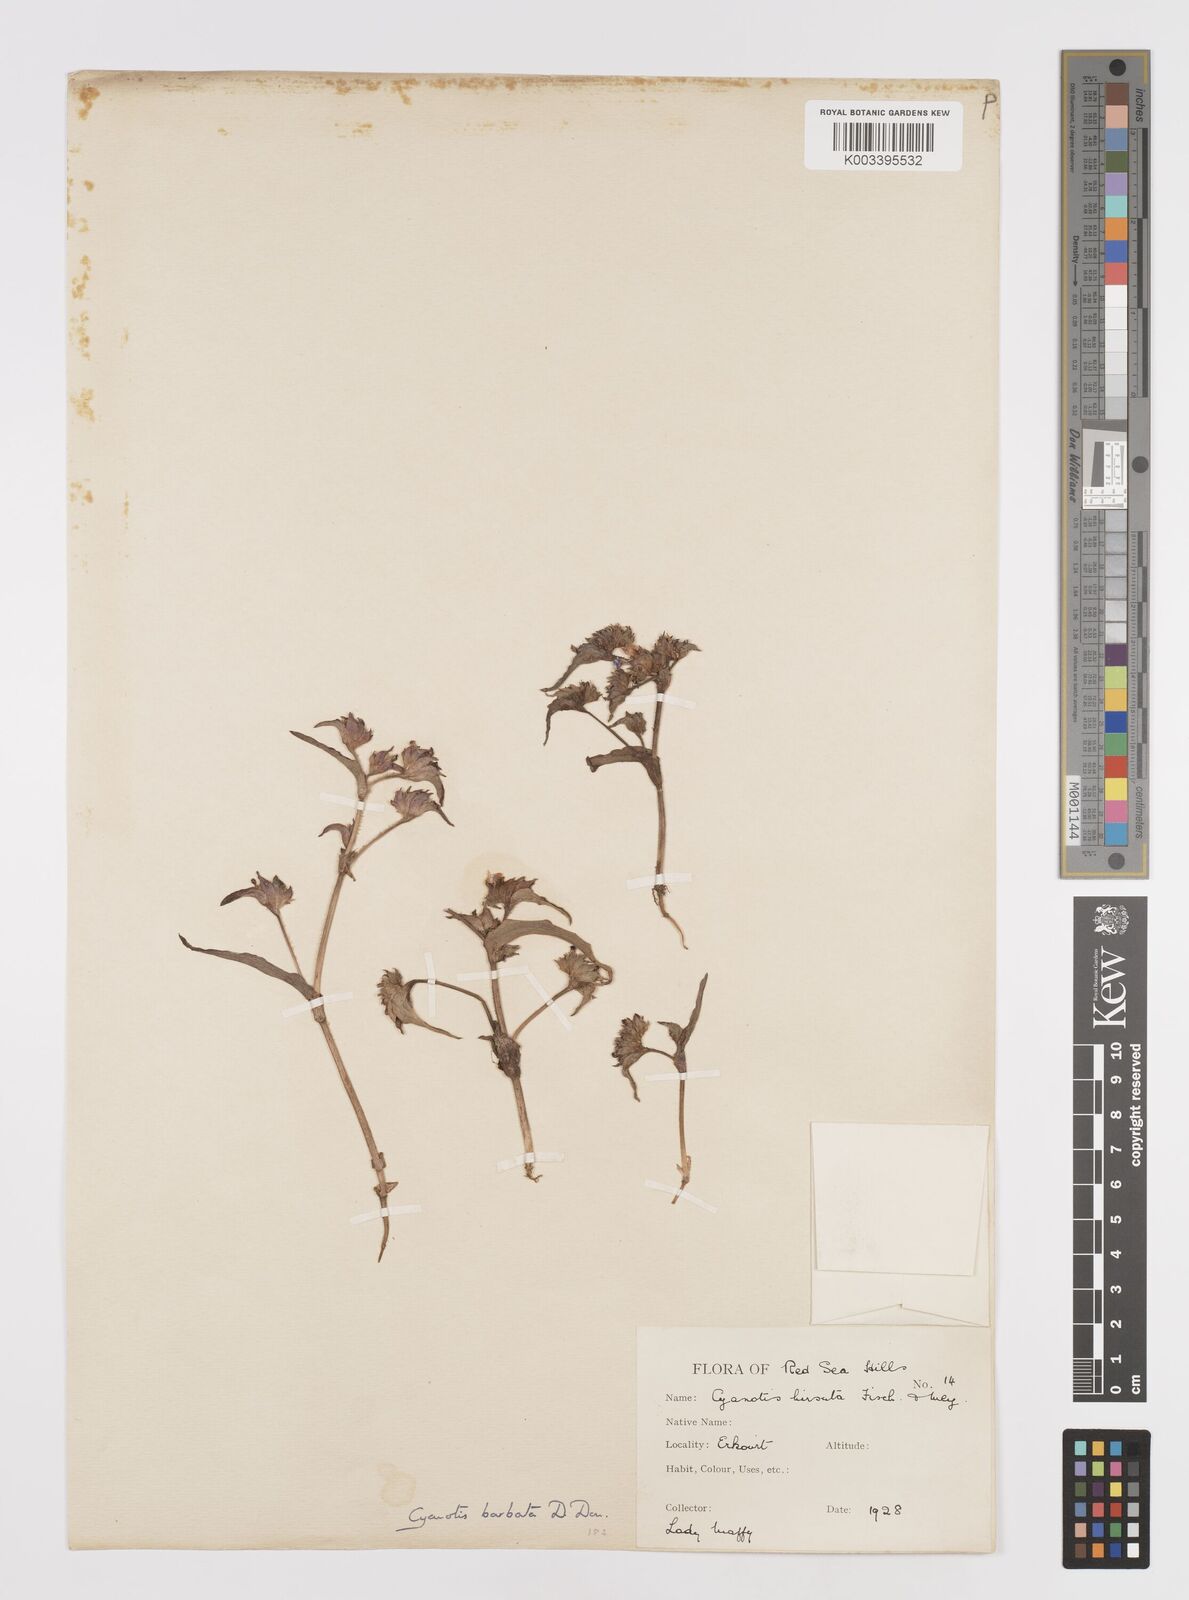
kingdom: Plantae
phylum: Tracheophyta
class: Liliopsida
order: Commelinales
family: Commelinaceae
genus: Cyanotis
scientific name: Cyanotis vaga
